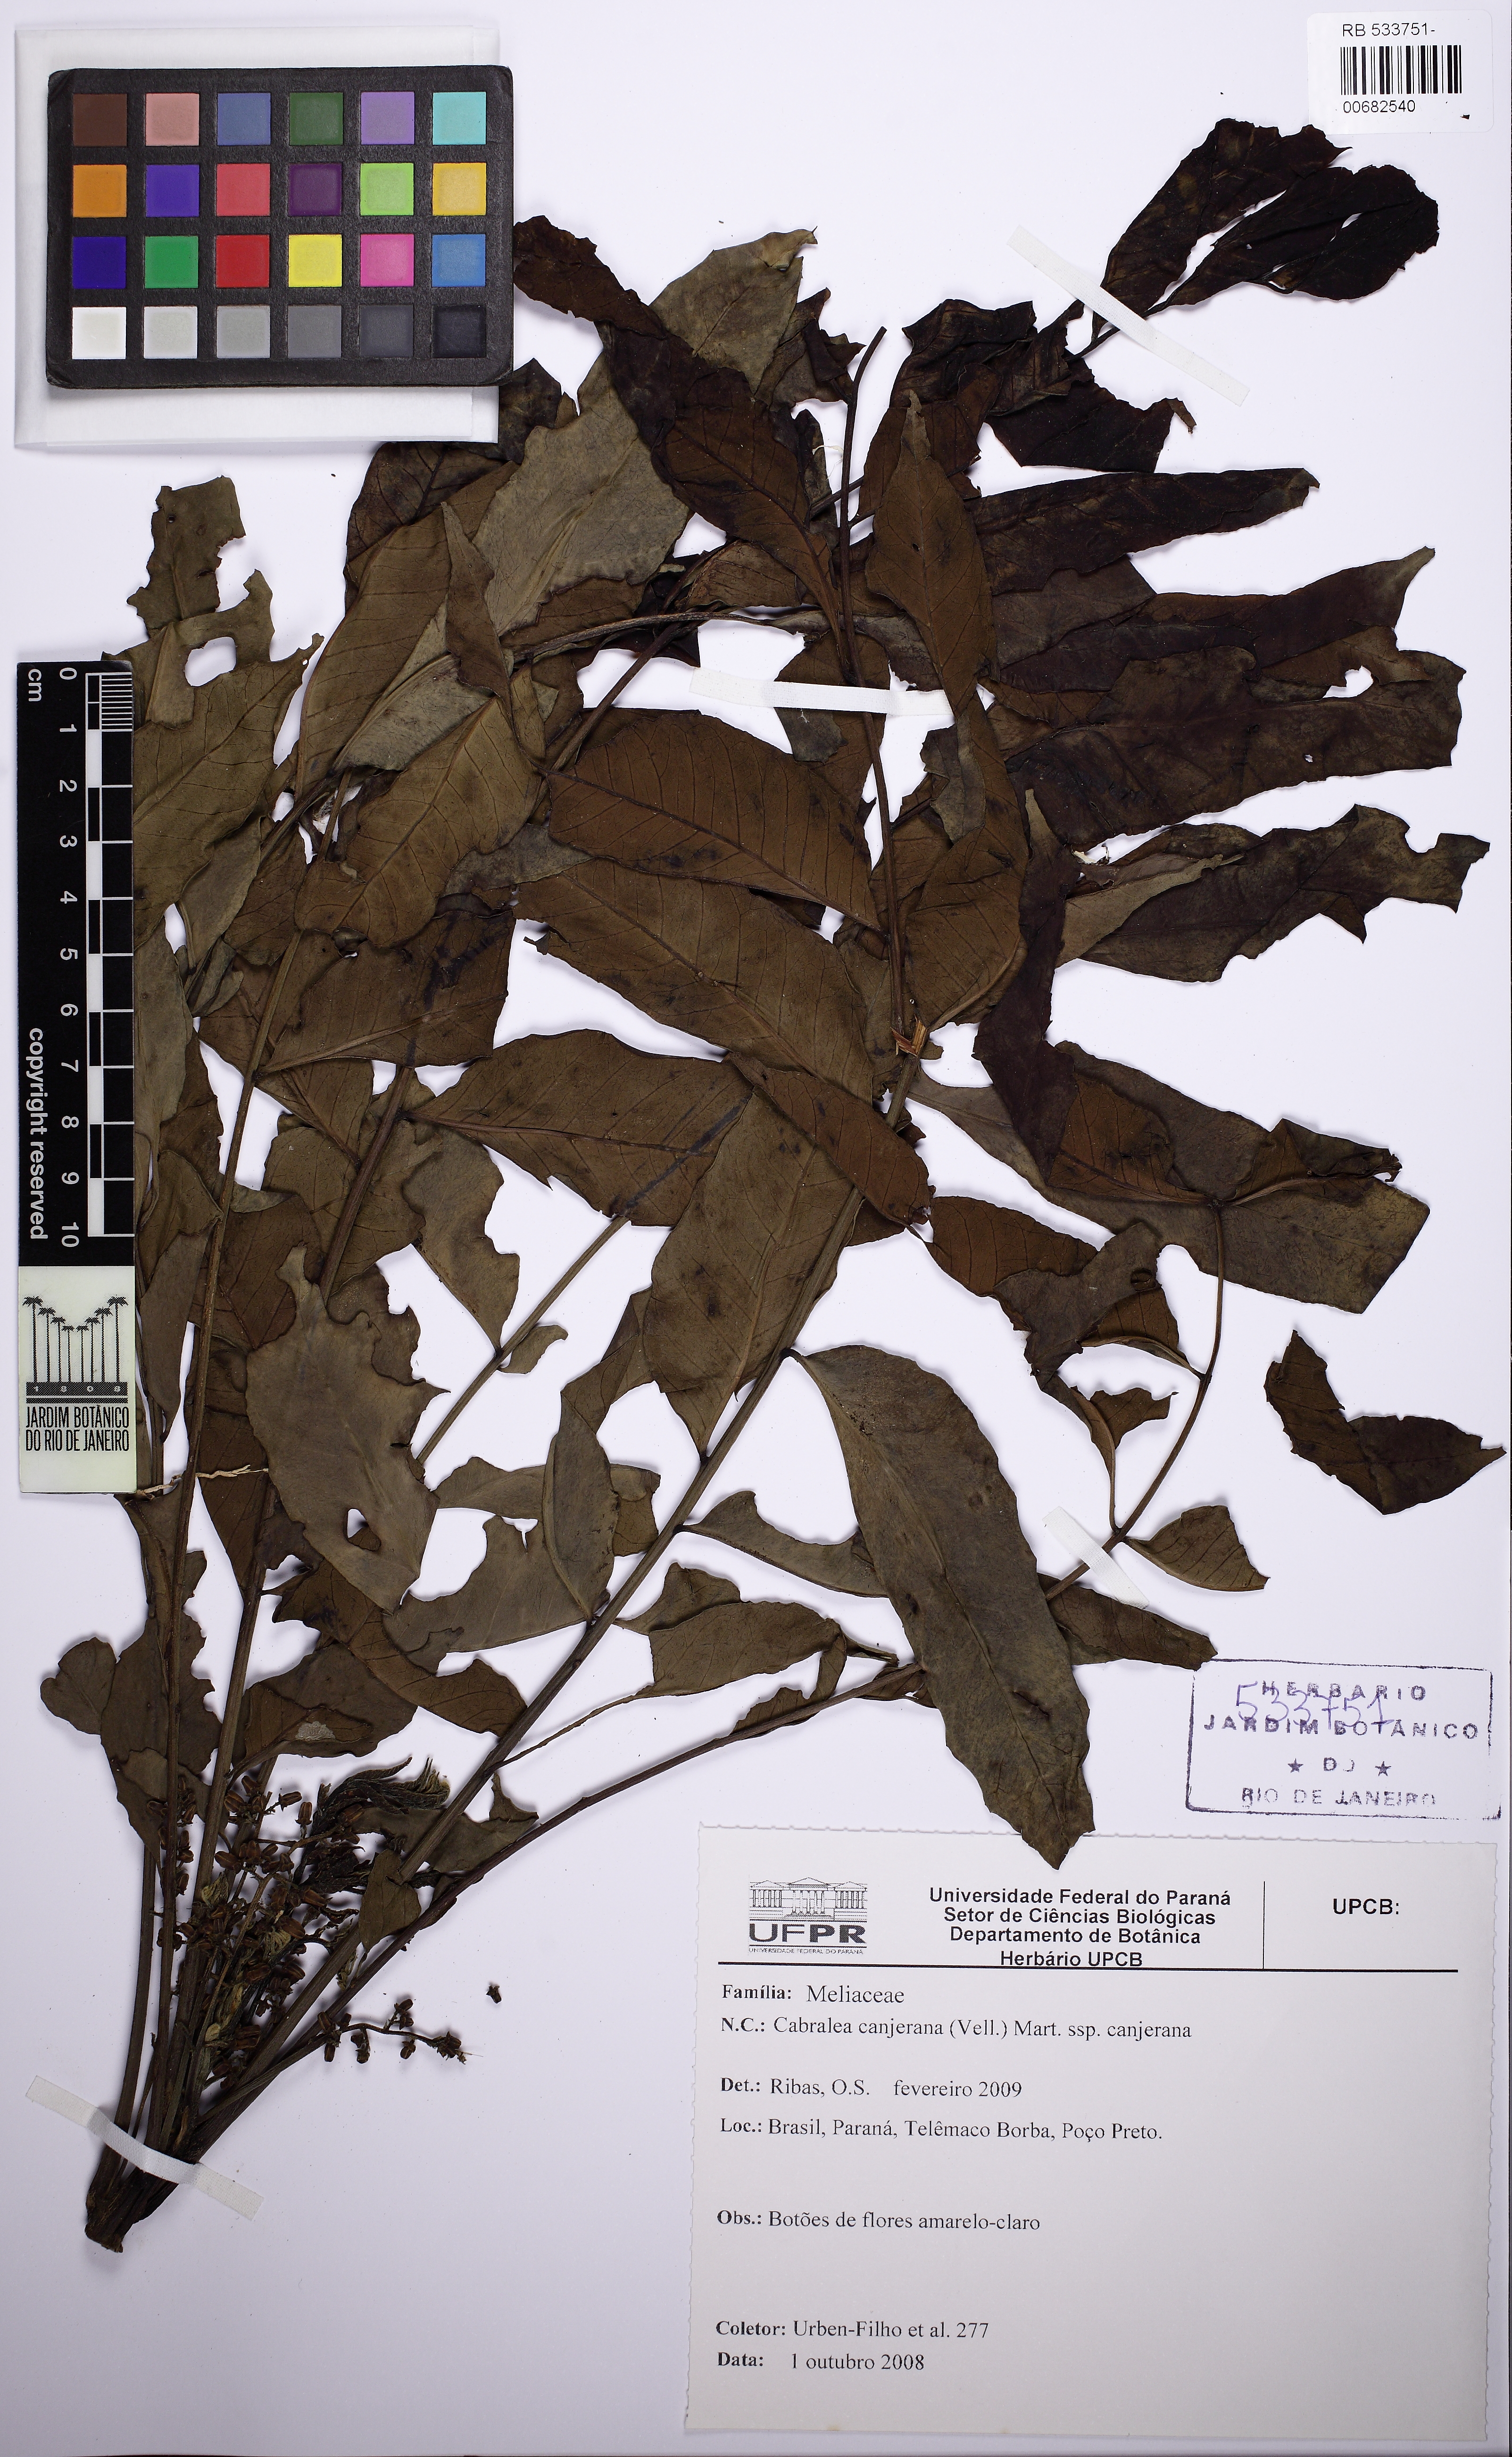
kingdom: Plantae
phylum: Tracheophyta
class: Magnoliopsida
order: Sapindales
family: Meliaceae
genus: Cabralea
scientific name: Cabralea canjerana
